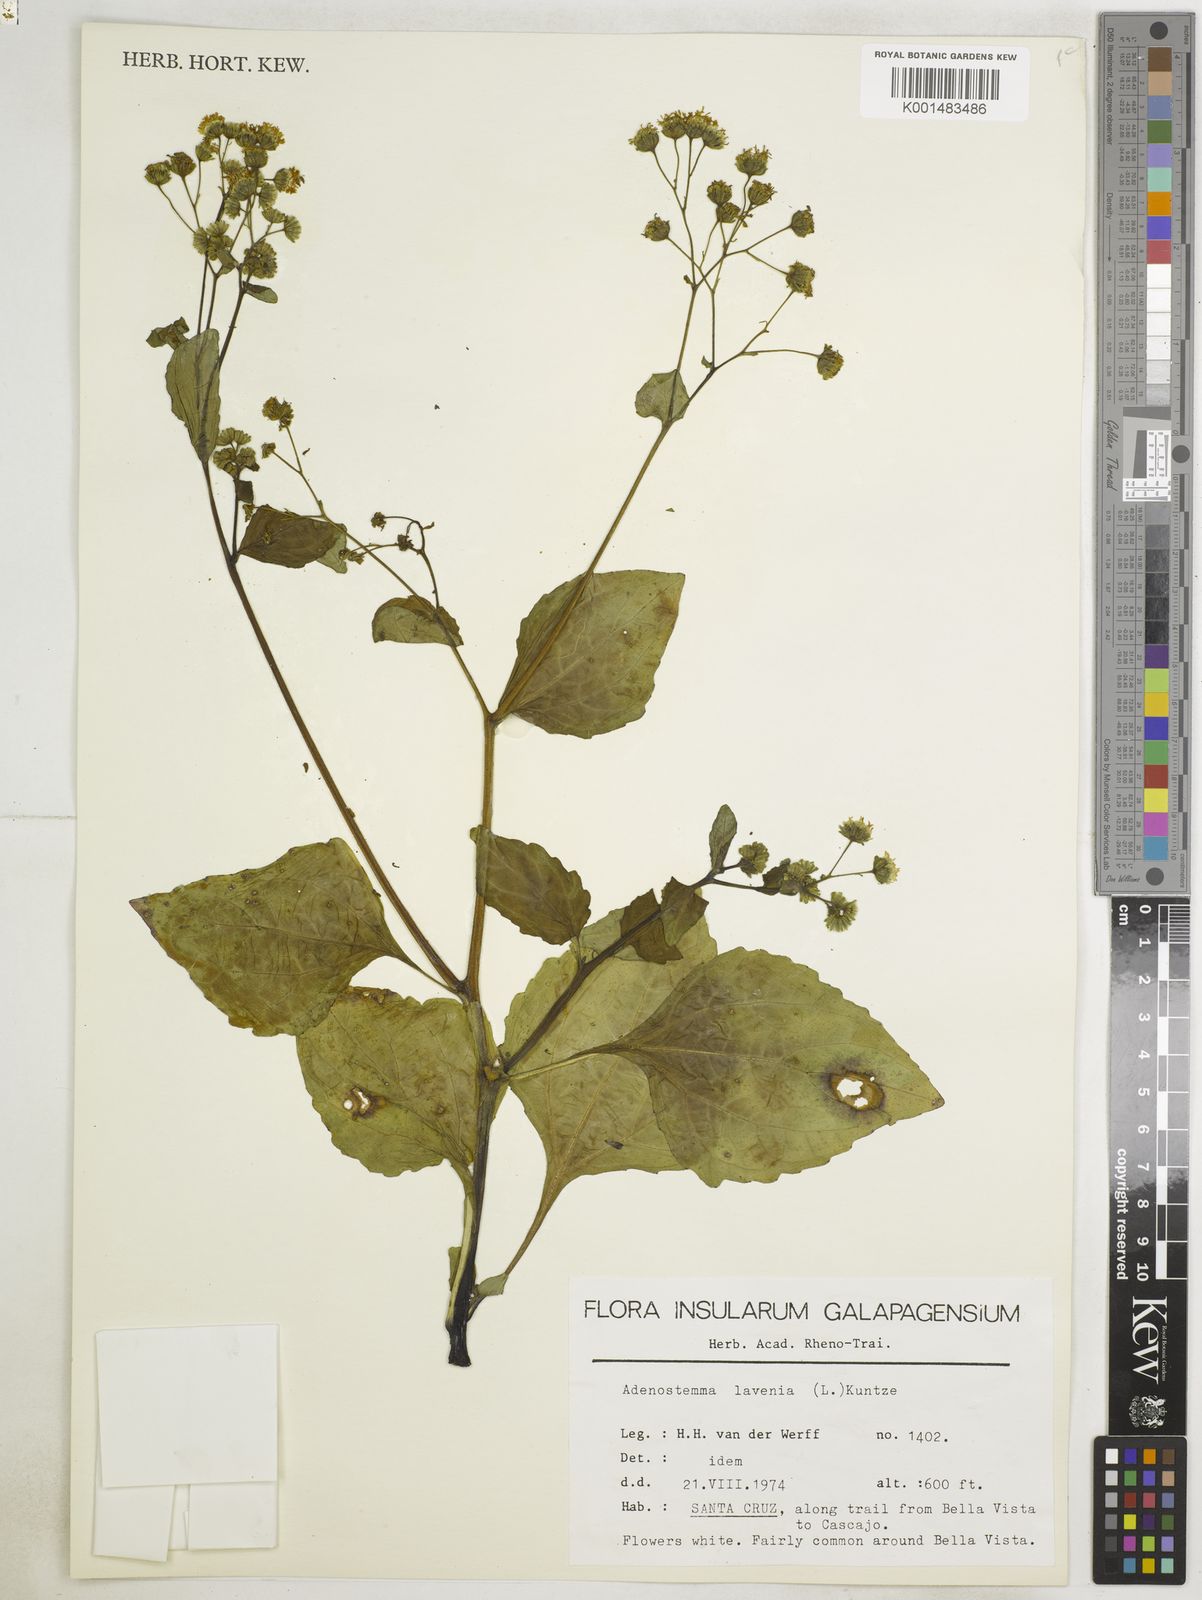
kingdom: Plantae
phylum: Tracheophyta
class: Magnoliopsida
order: Asterales
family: Asteraceae
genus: Adenostemma
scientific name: Adenostemma lavenia
